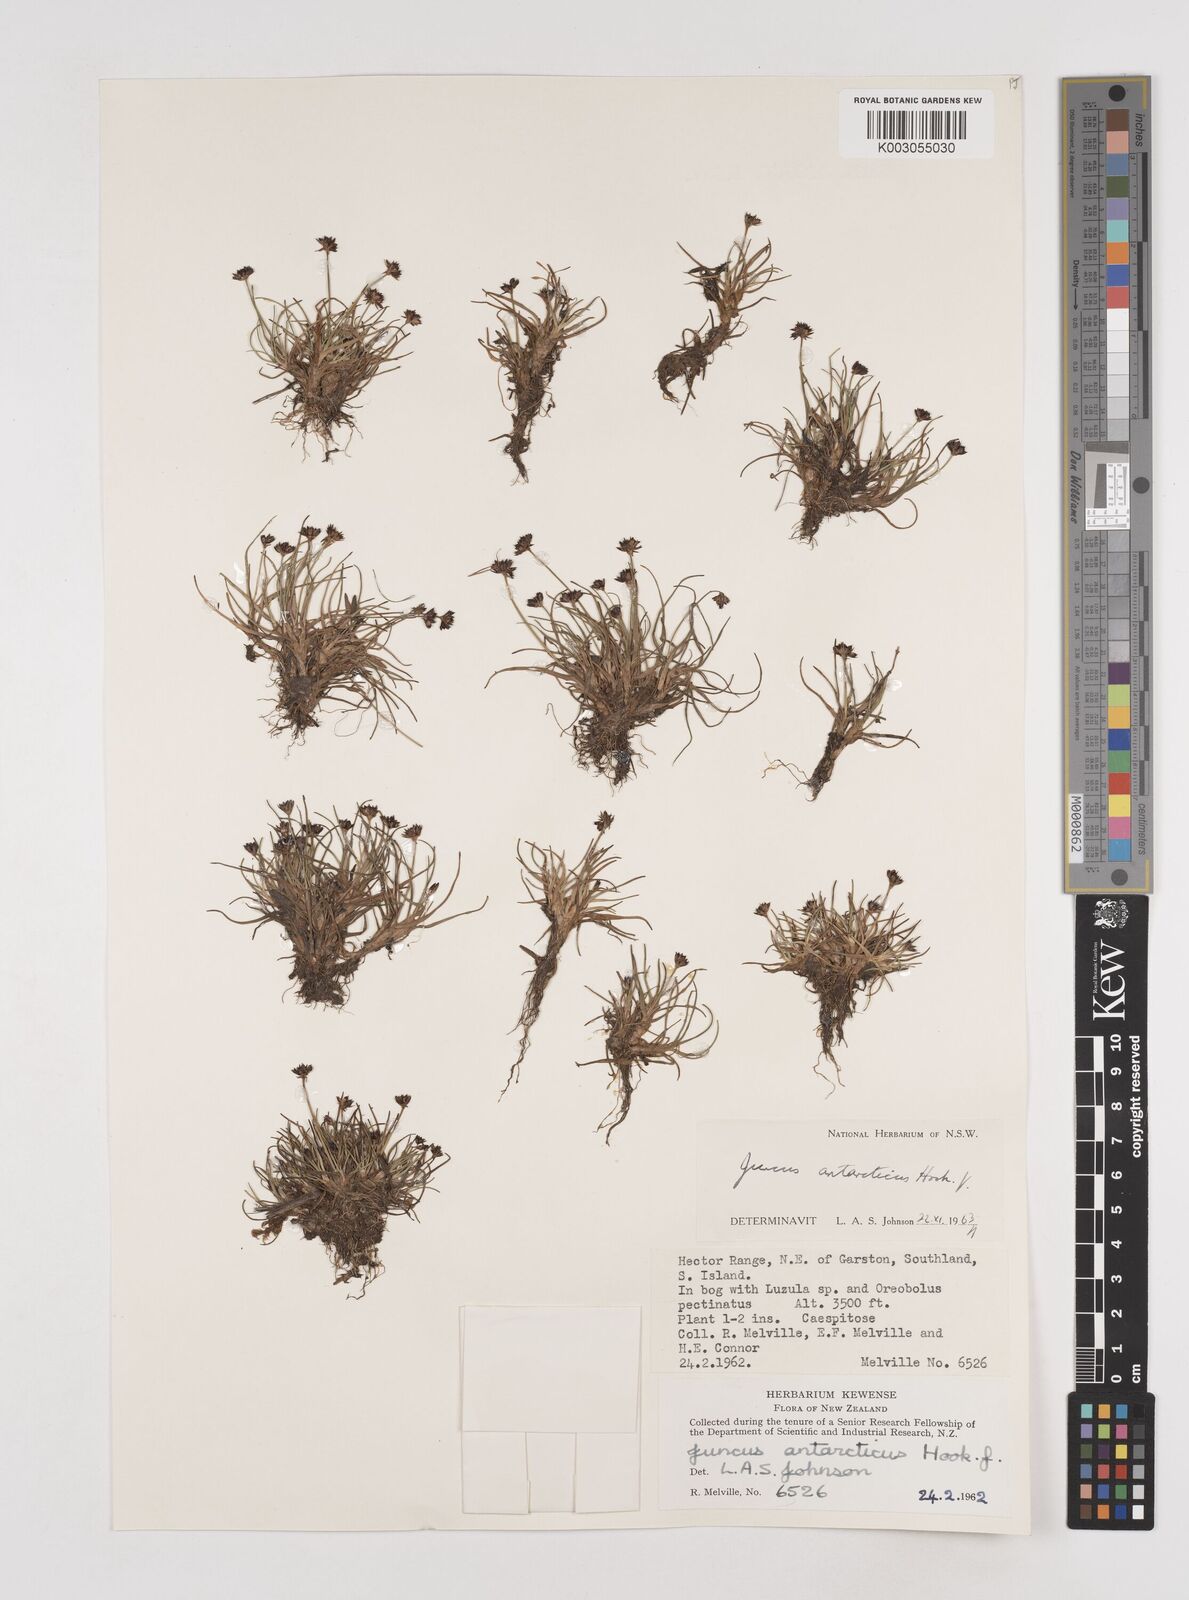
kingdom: Plantae
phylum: Tracheophyta
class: Liliopsida
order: Poales
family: Juncaceae
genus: Juncus
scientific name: Juncus antarcticus
